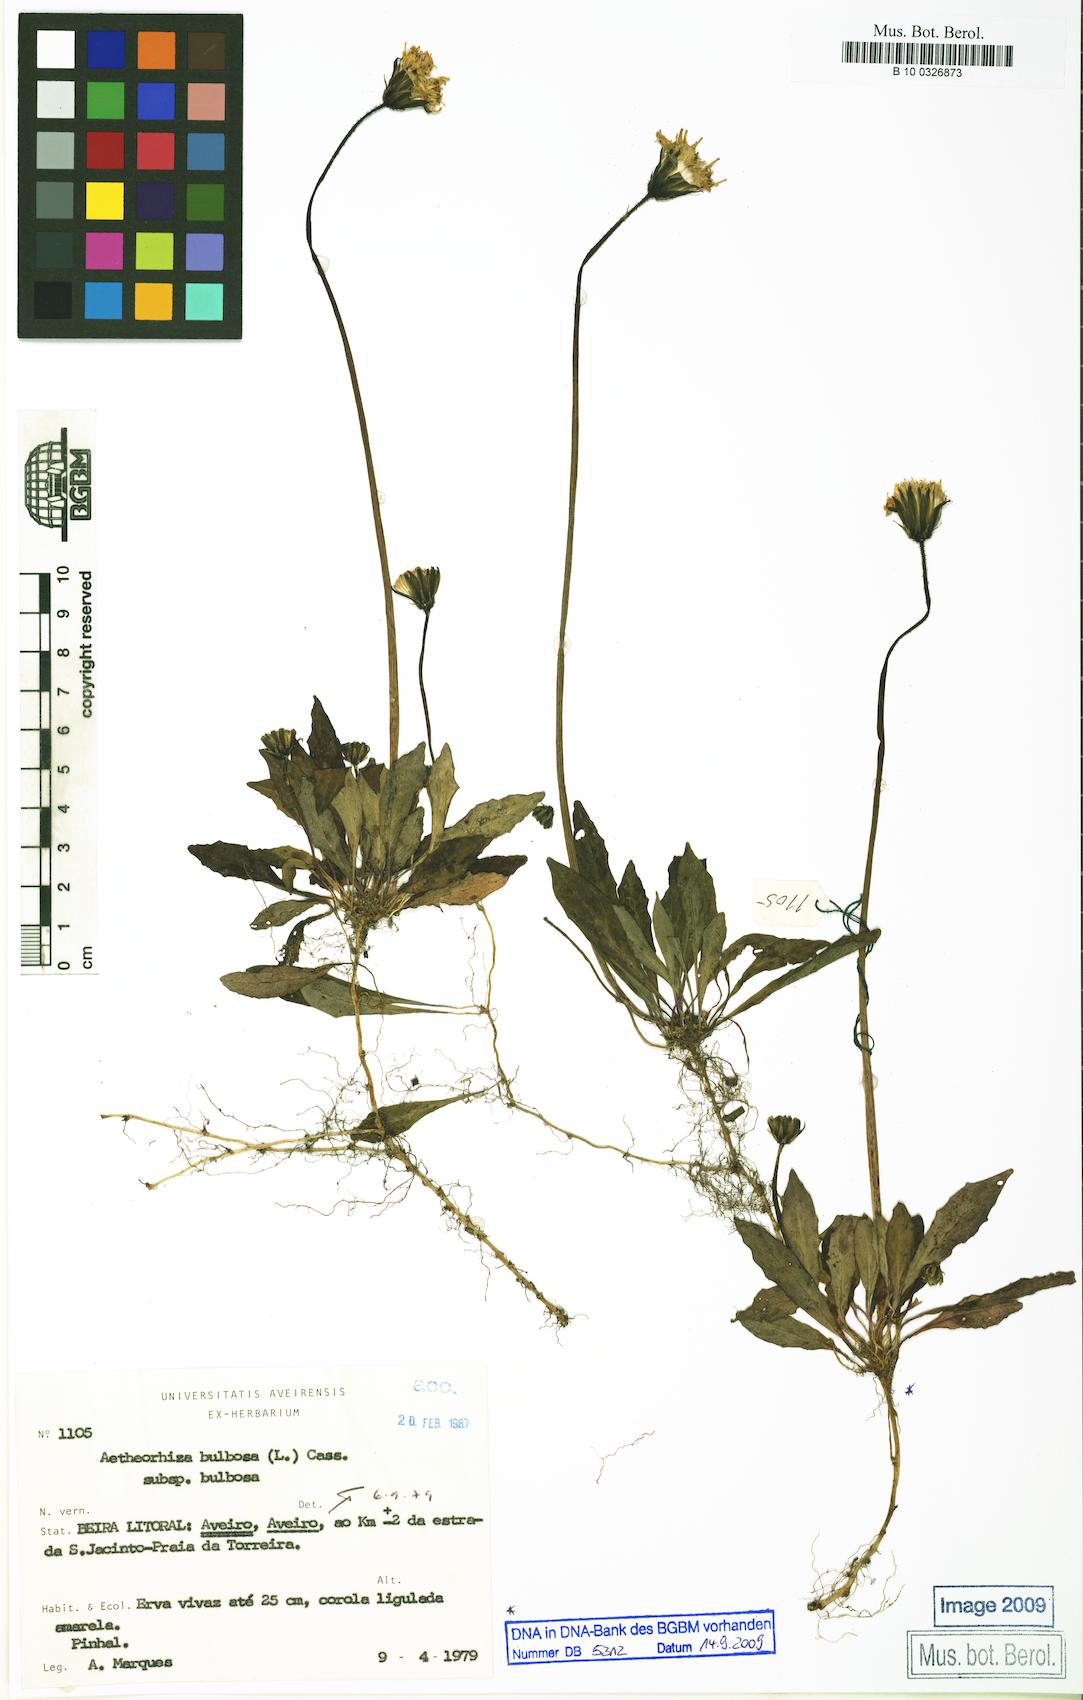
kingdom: Plantae
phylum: Tracheophyta
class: Magnoliopsida
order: Asterales
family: Asteraceae
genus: Aetheorhiza
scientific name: Aetheorhiza bulbosa
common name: Tuberous hawk's-beard
